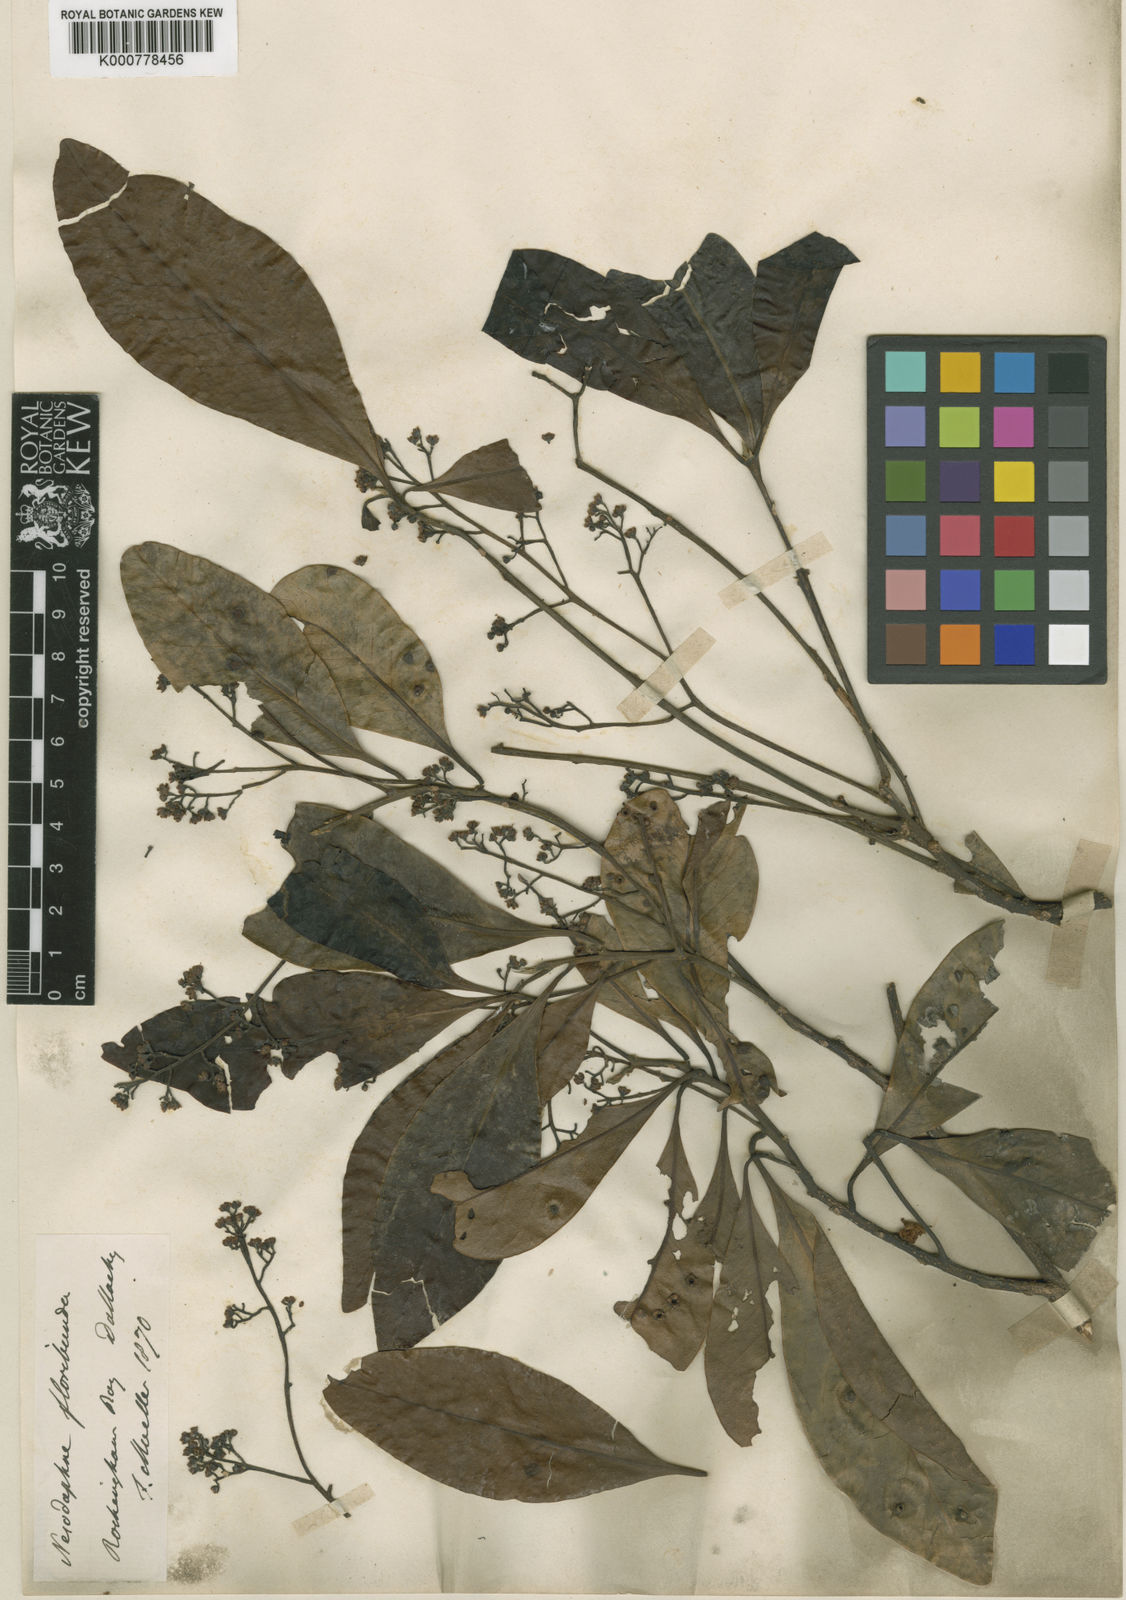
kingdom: Plantae
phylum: Tracheophyta
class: Magnoliopsida
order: Laurales
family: Lauraceae
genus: Beilschmiedia
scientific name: Beilschmiedia obtusifolia
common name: Queensland-sassafras
